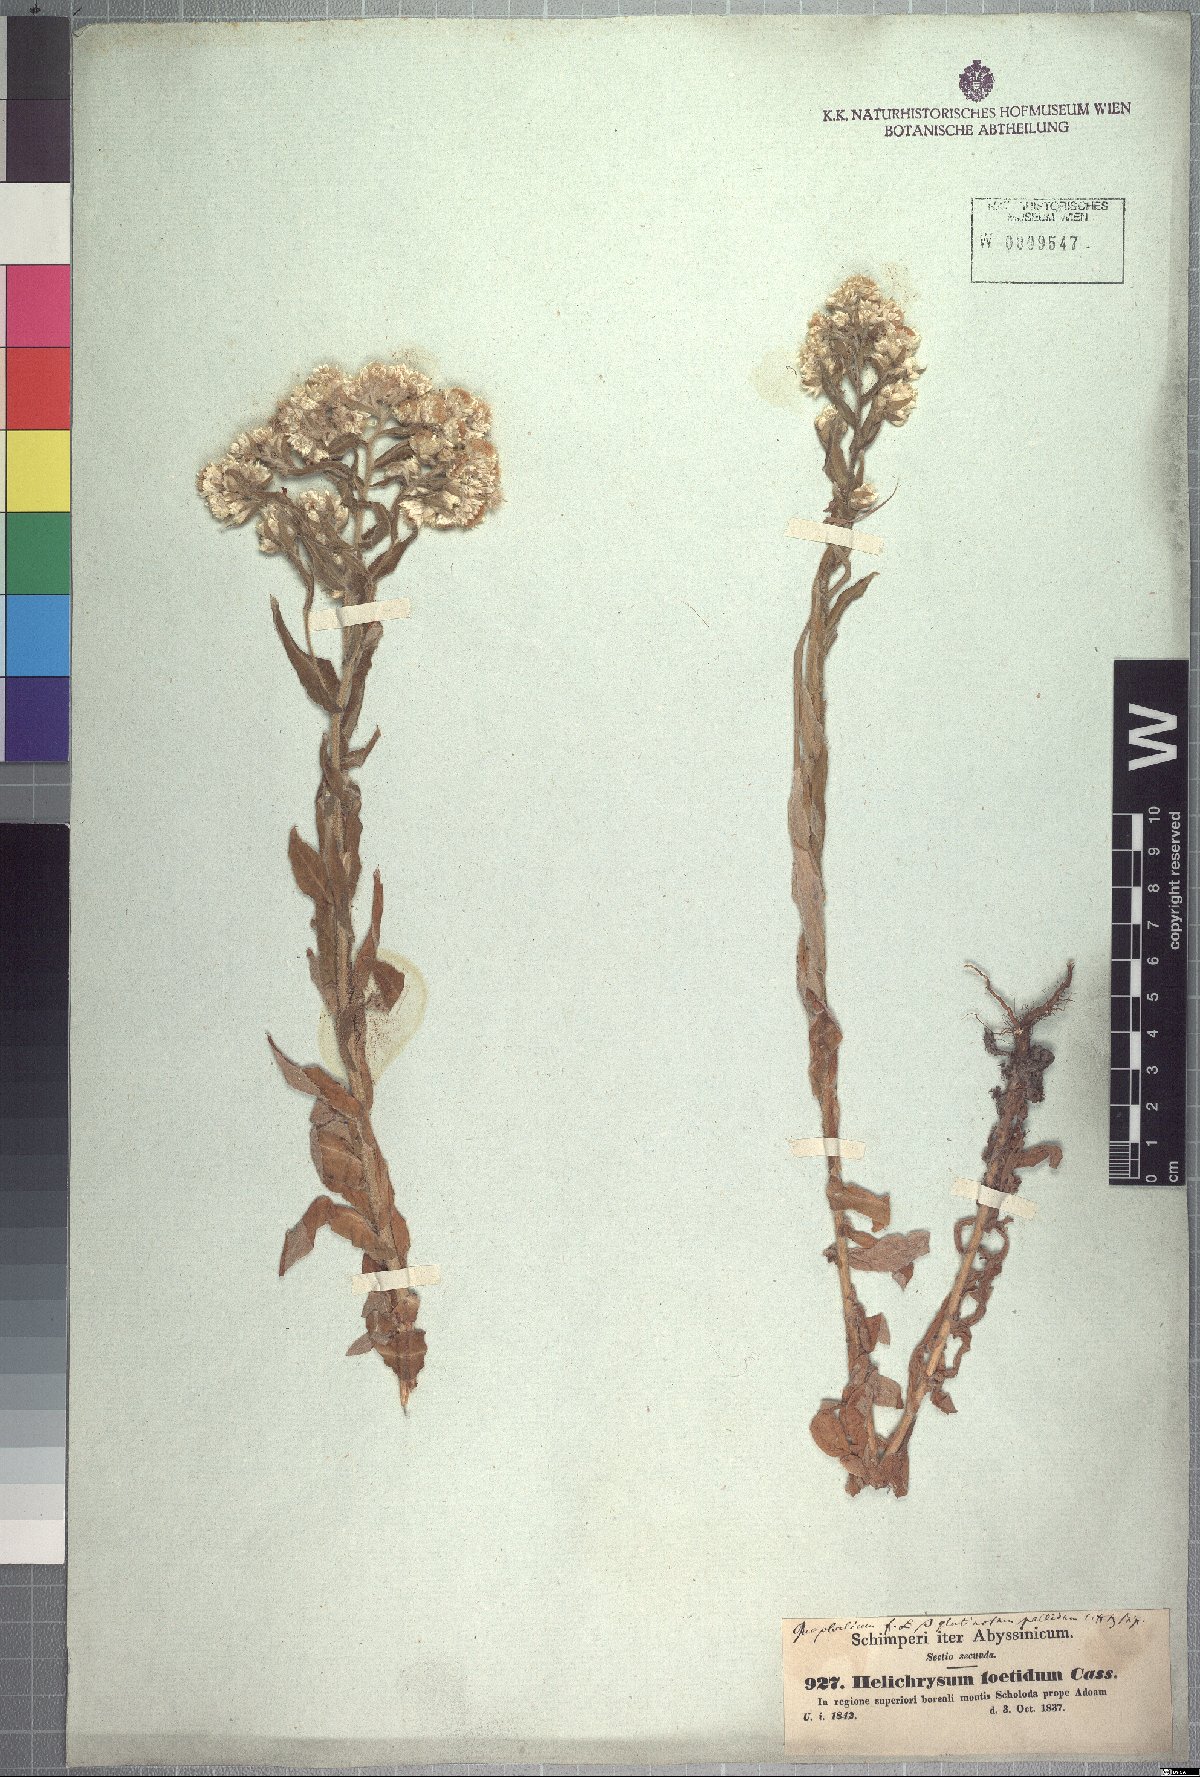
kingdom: Plantae
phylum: Tracheophyta
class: Magnoliopsida
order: Asterales
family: Asteraceae
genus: Helichrysum
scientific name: Helichrysum foetidum
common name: Stinking everlasting
